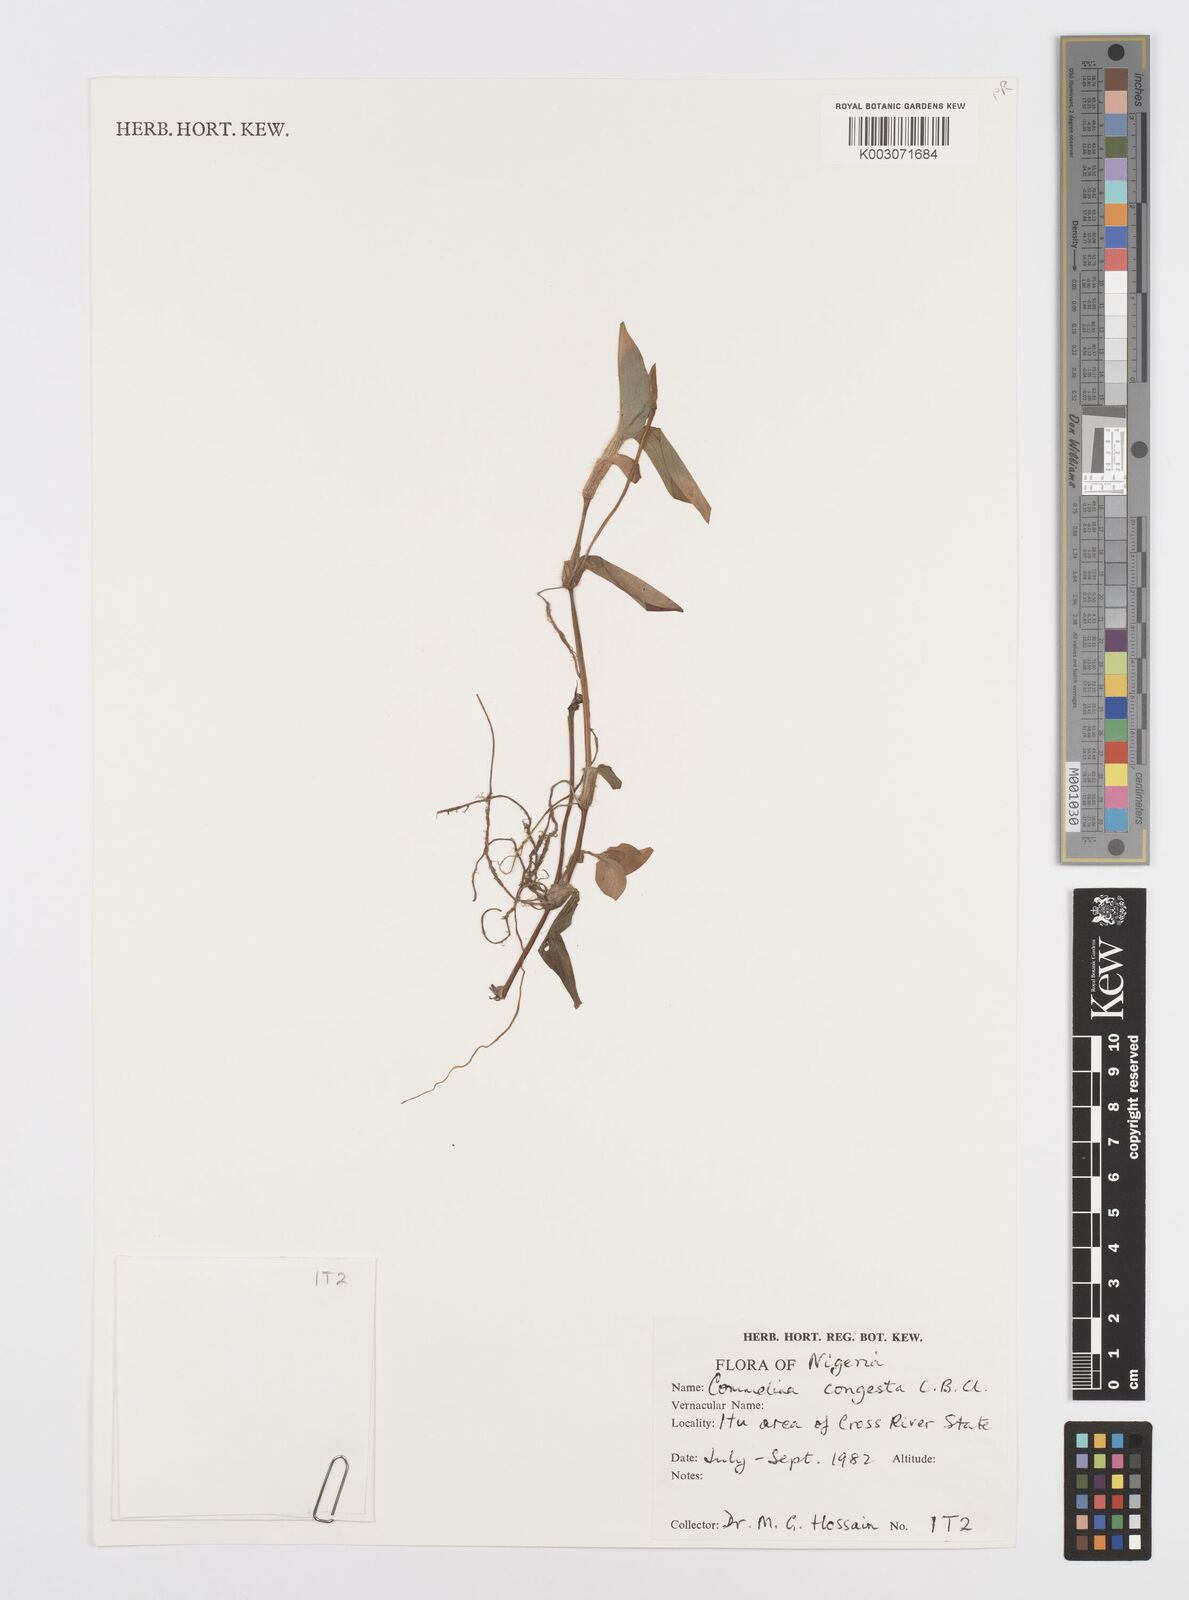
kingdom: Plantae
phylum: Tracheophyta
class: Liliopsida
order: Commelinales
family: Commelinaceae
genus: Commelina
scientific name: Commelina congesta
